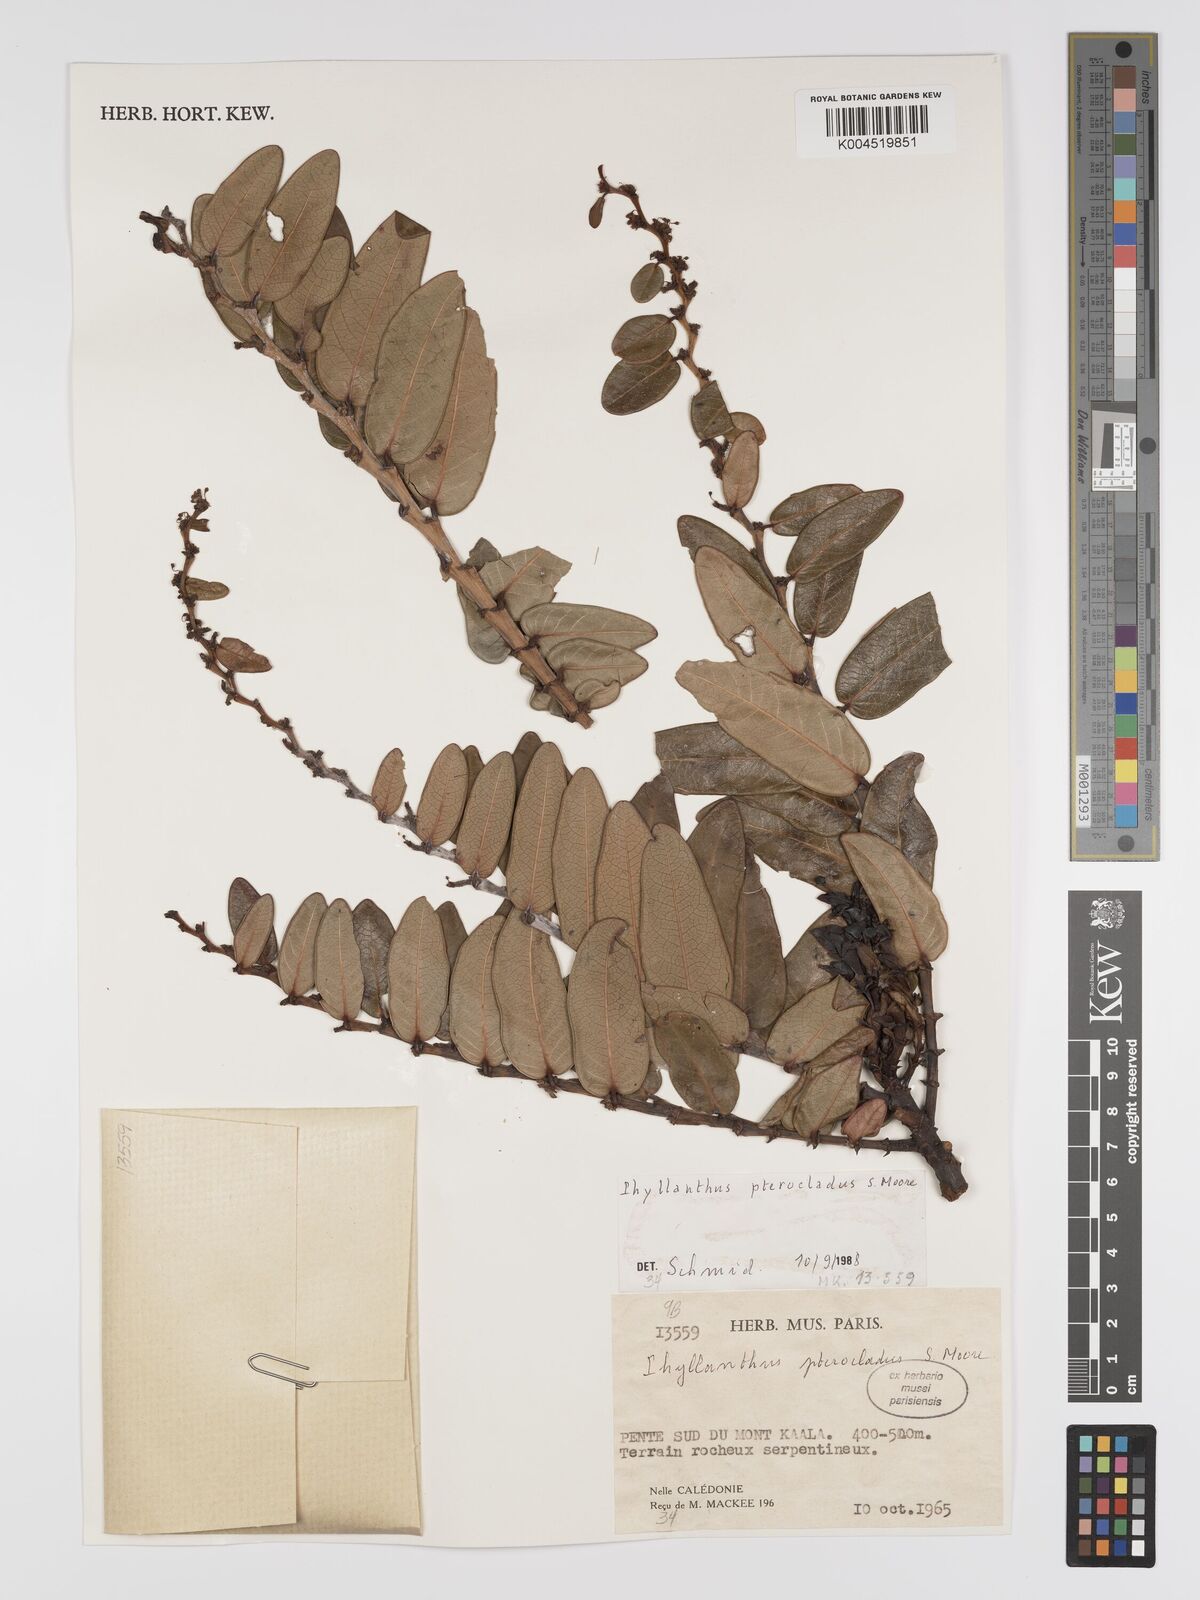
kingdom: Plantae
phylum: Tracheophyta
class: Magnoliopsida
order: Malpighiales
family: Phyllanthaceae
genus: Phyllanthus
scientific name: Phyllanthus pterocladus
